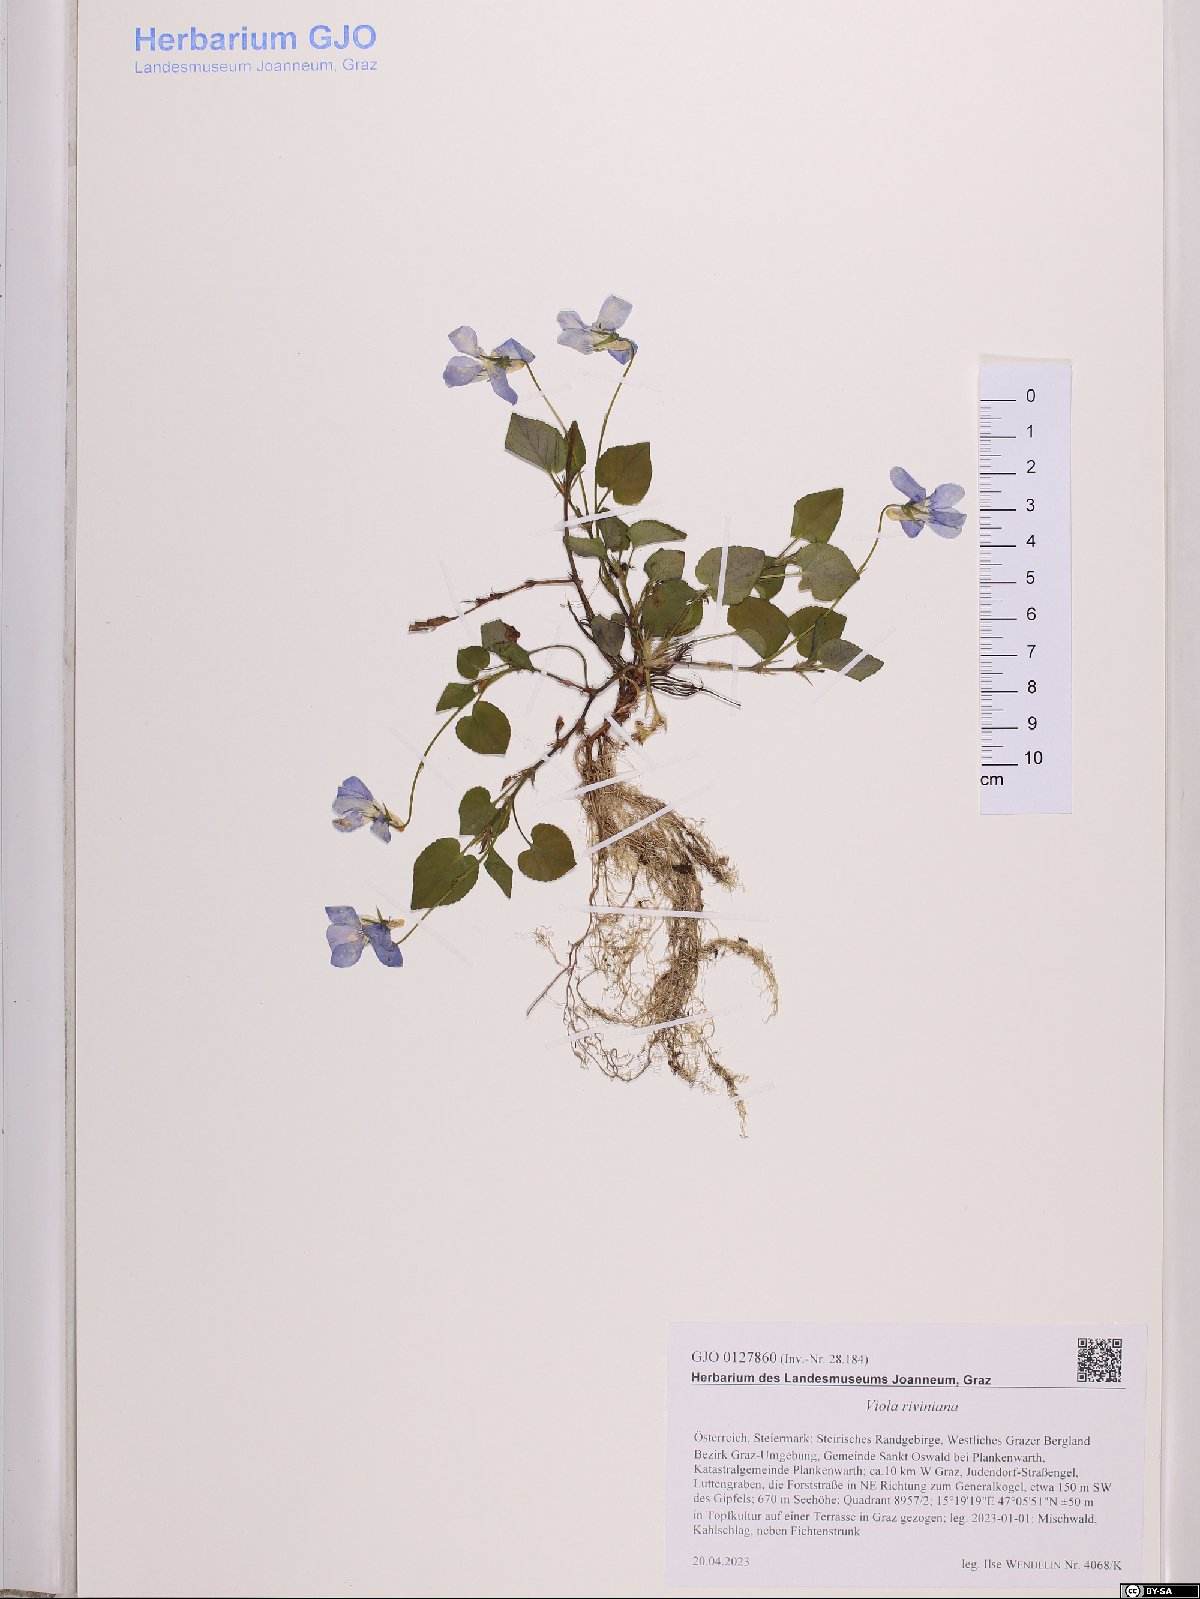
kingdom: Plantae
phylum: Tracheophyta
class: Magnoliopsida
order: Malpighiales
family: Violaceae
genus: Viola
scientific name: Viola riviniana
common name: Common dog-violet
